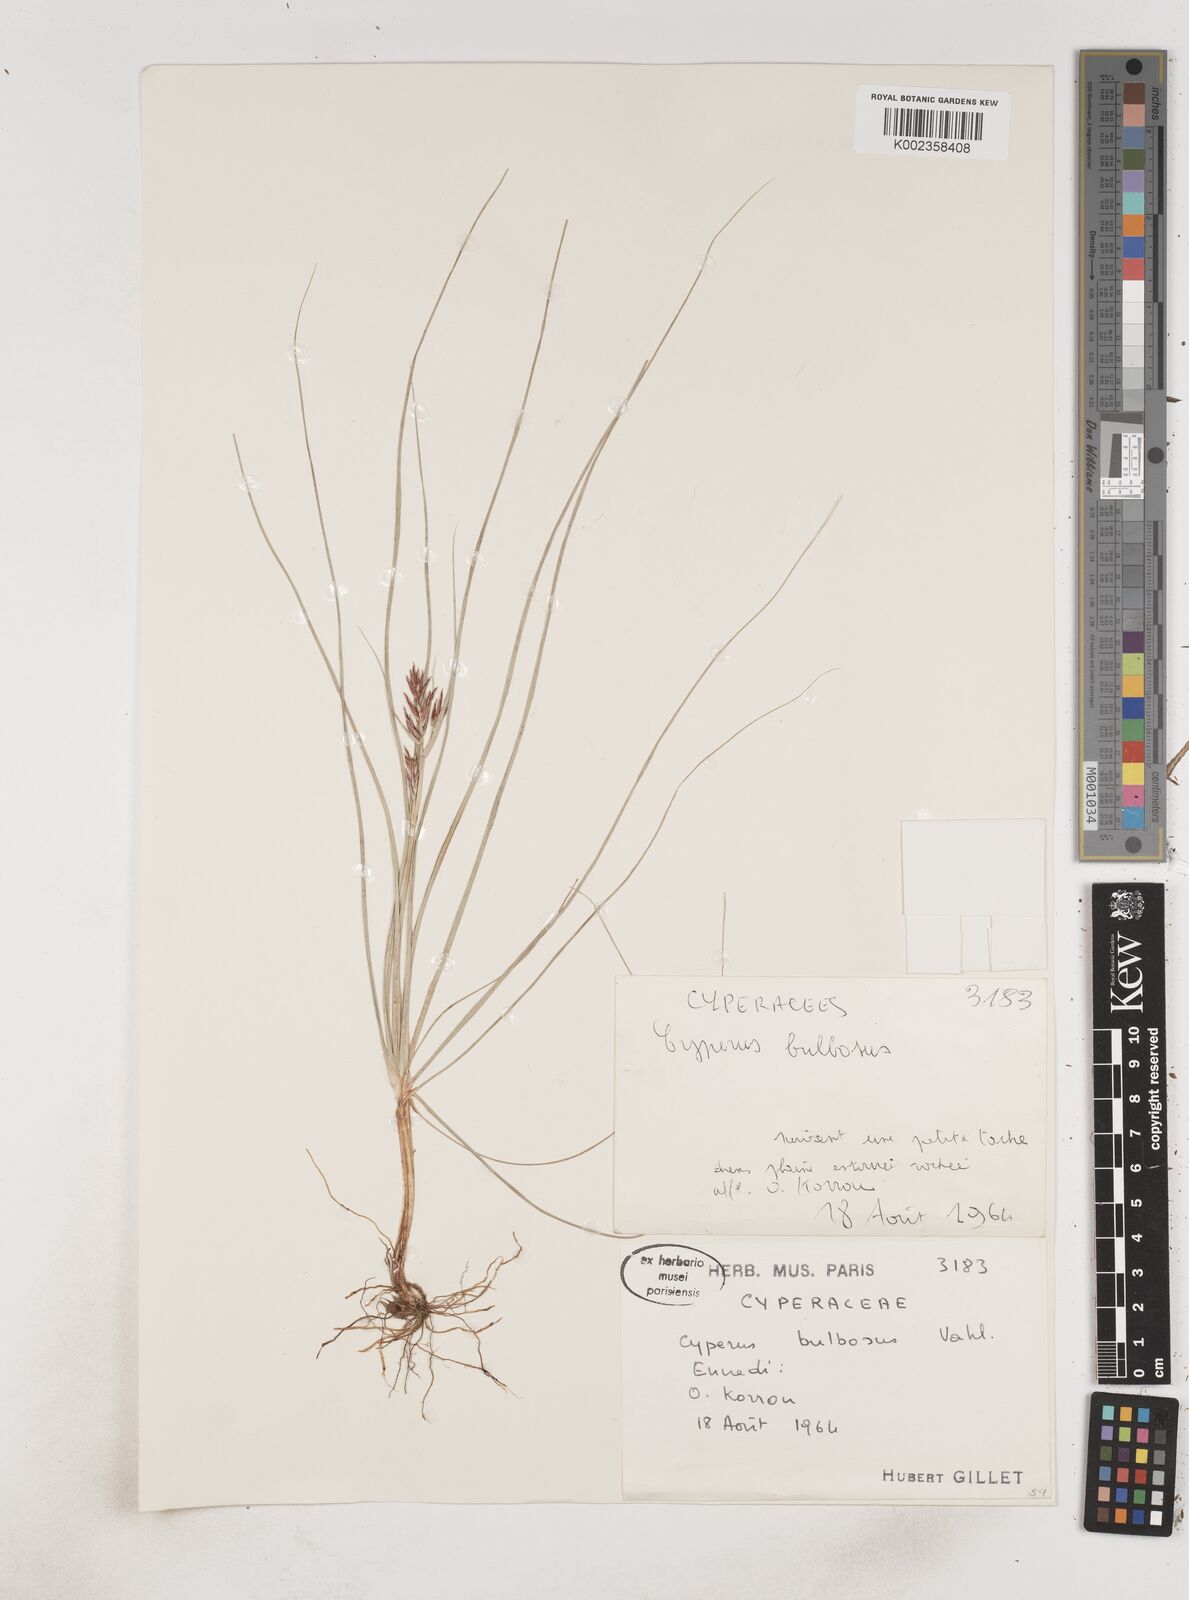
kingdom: Plantae
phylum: Tracheophyta
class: Liliopsida
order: Poales
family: Cyperaceae
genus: Cyperus
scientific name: Cyperus bulbosus
